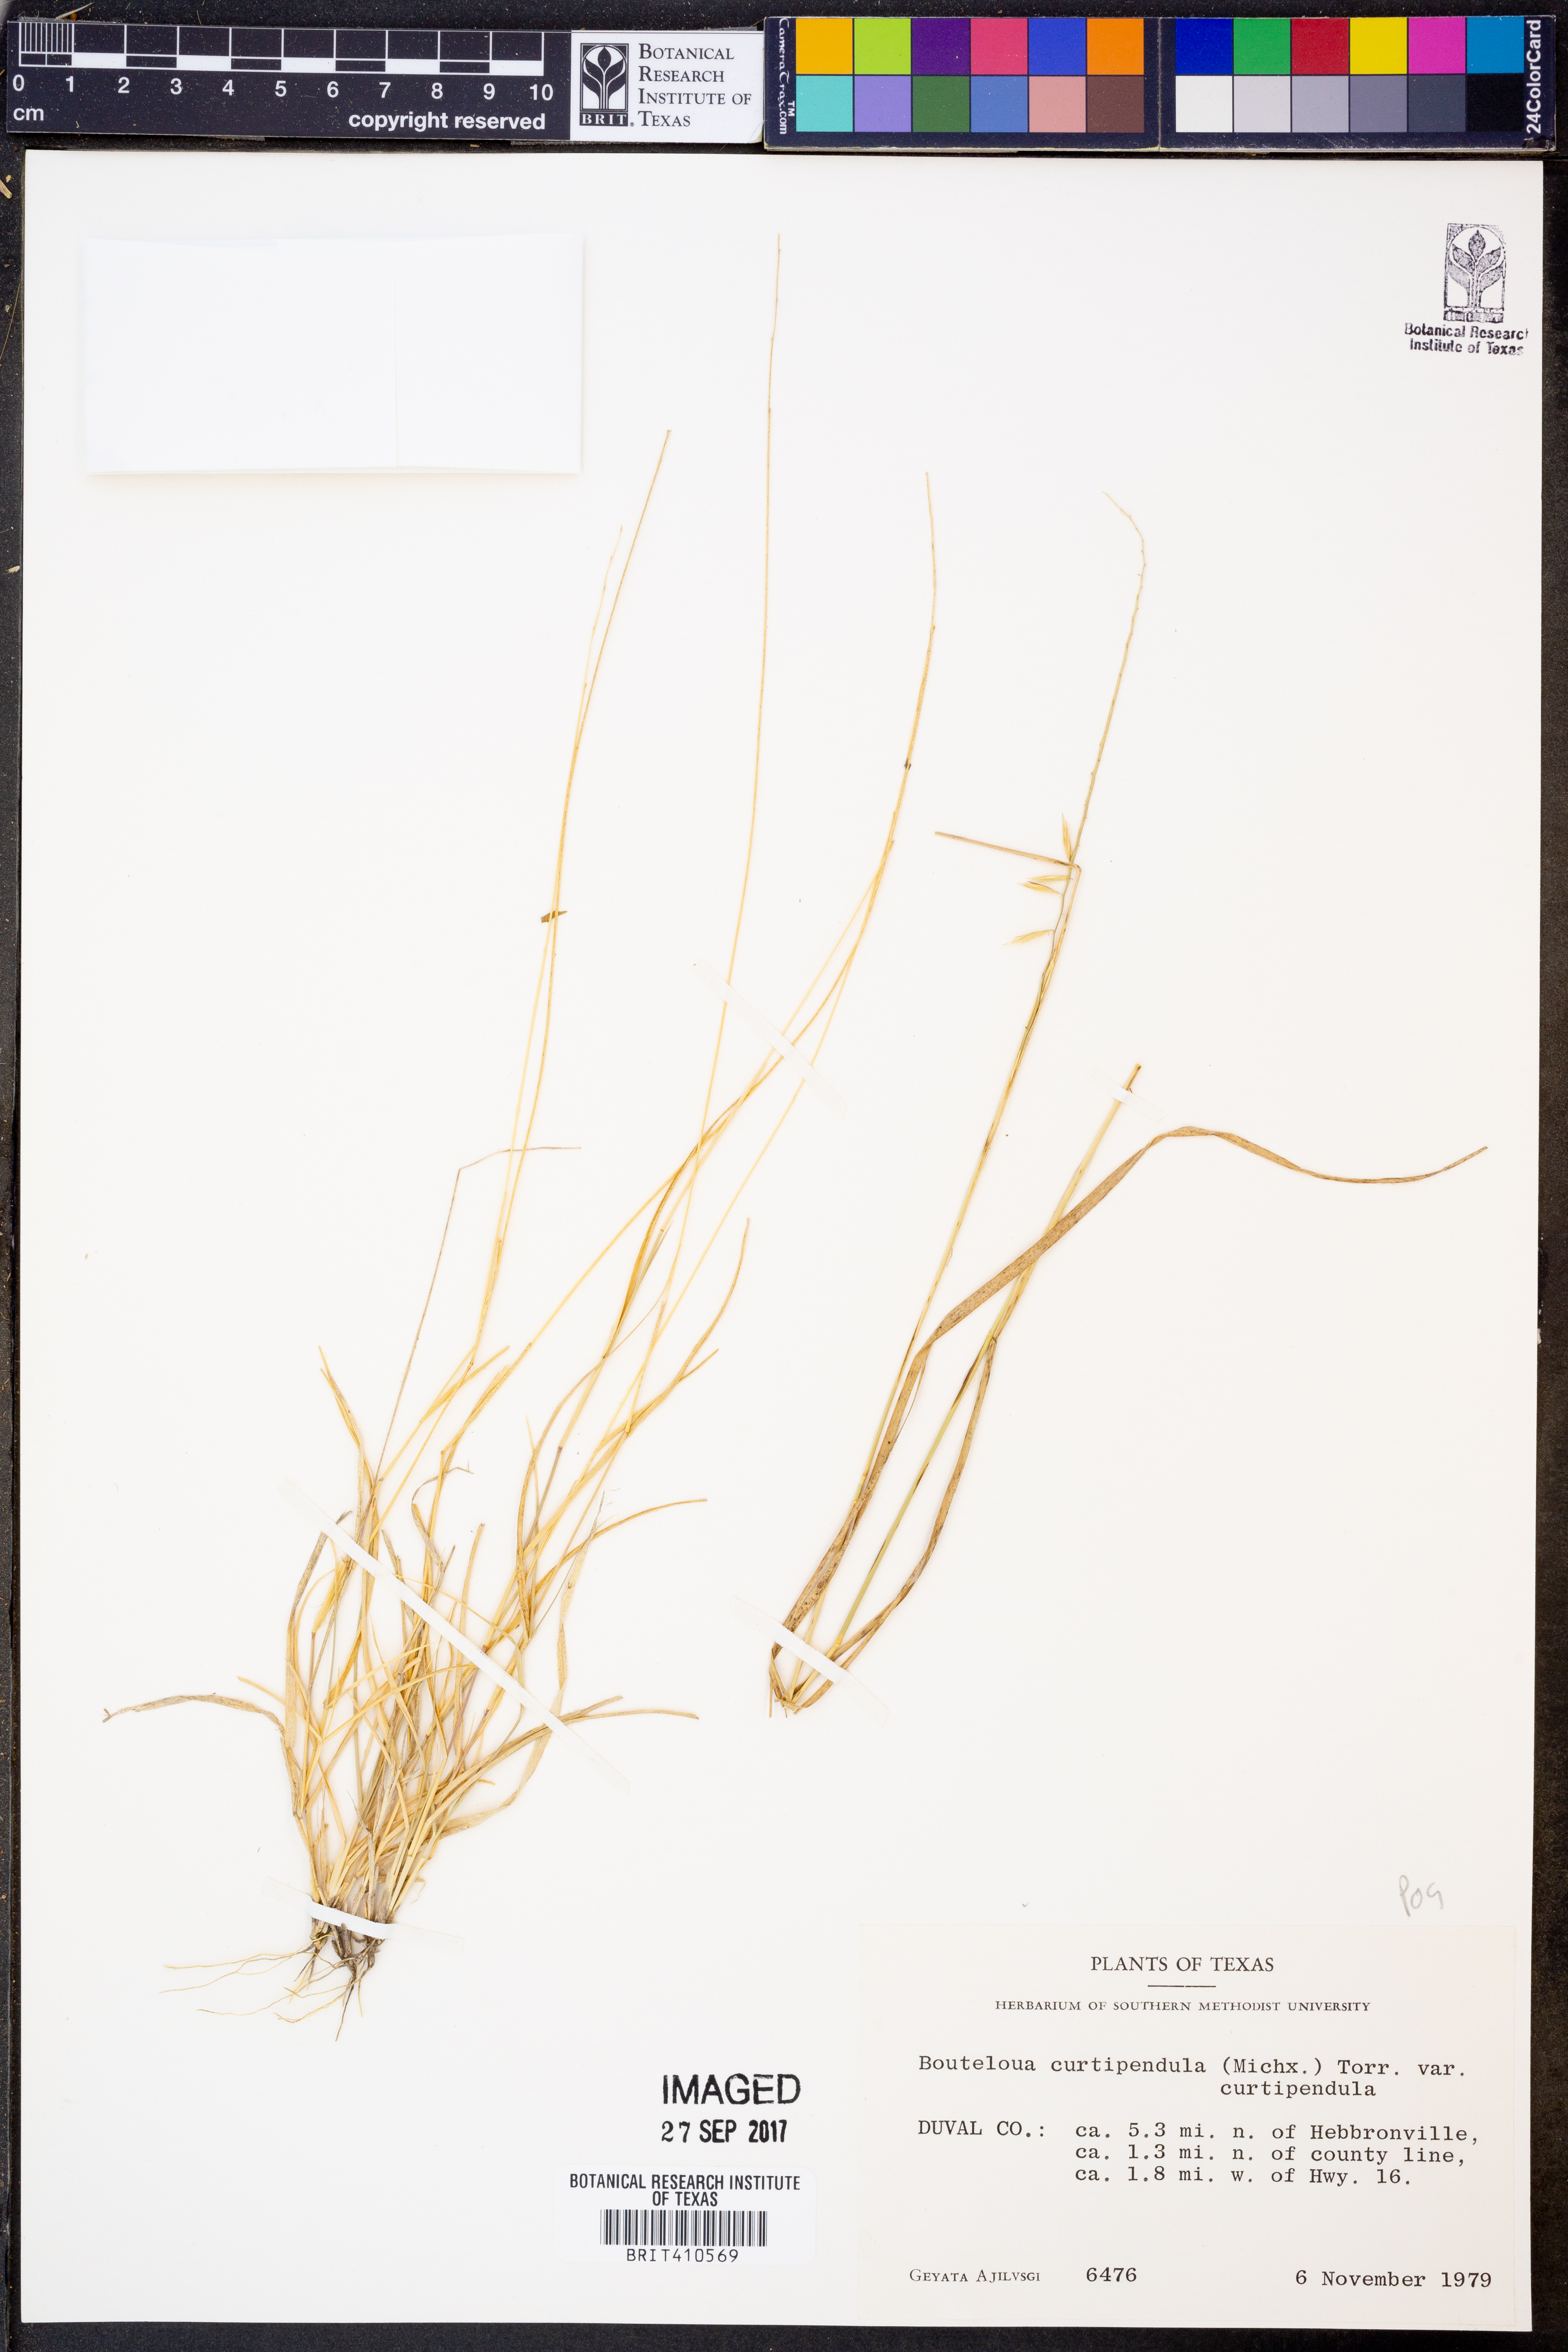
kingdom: Plantae
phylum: Tracheophyta
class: Liliopsida
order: Poales
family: Poaceae
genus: Bouteloua
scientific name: Bouteloua curtipendula
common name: Side-oats grama
